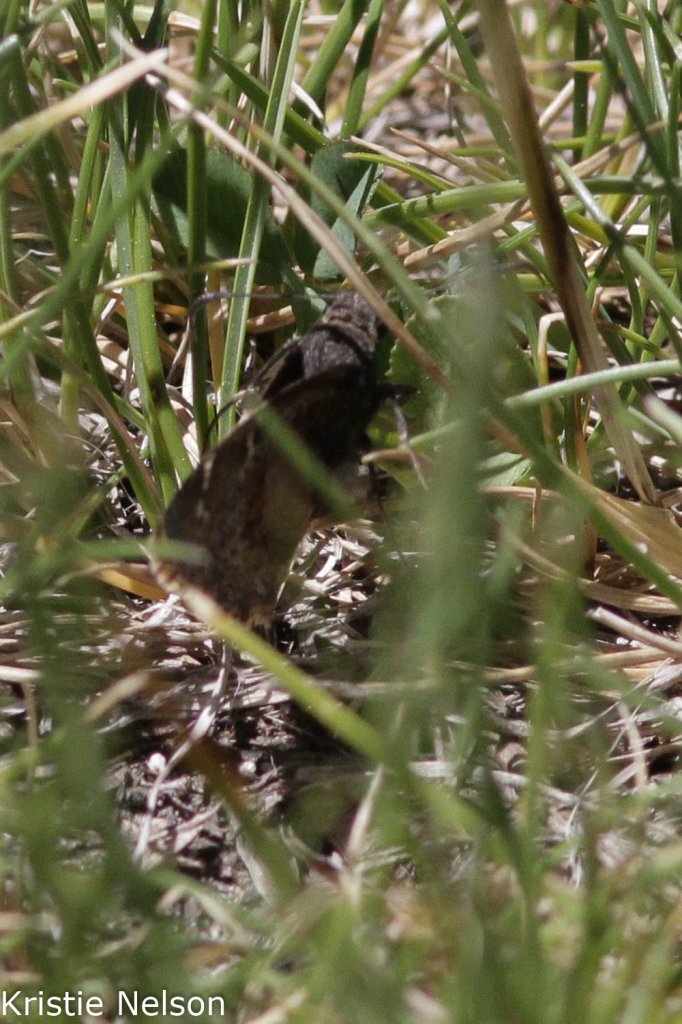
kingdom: Animalia
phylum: Arthropoda
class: Insecta
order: Lepidoptera
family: Hesperiidae
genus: Thorybes
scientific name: Thorybes mexicana
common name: Mexican Cloudywing
